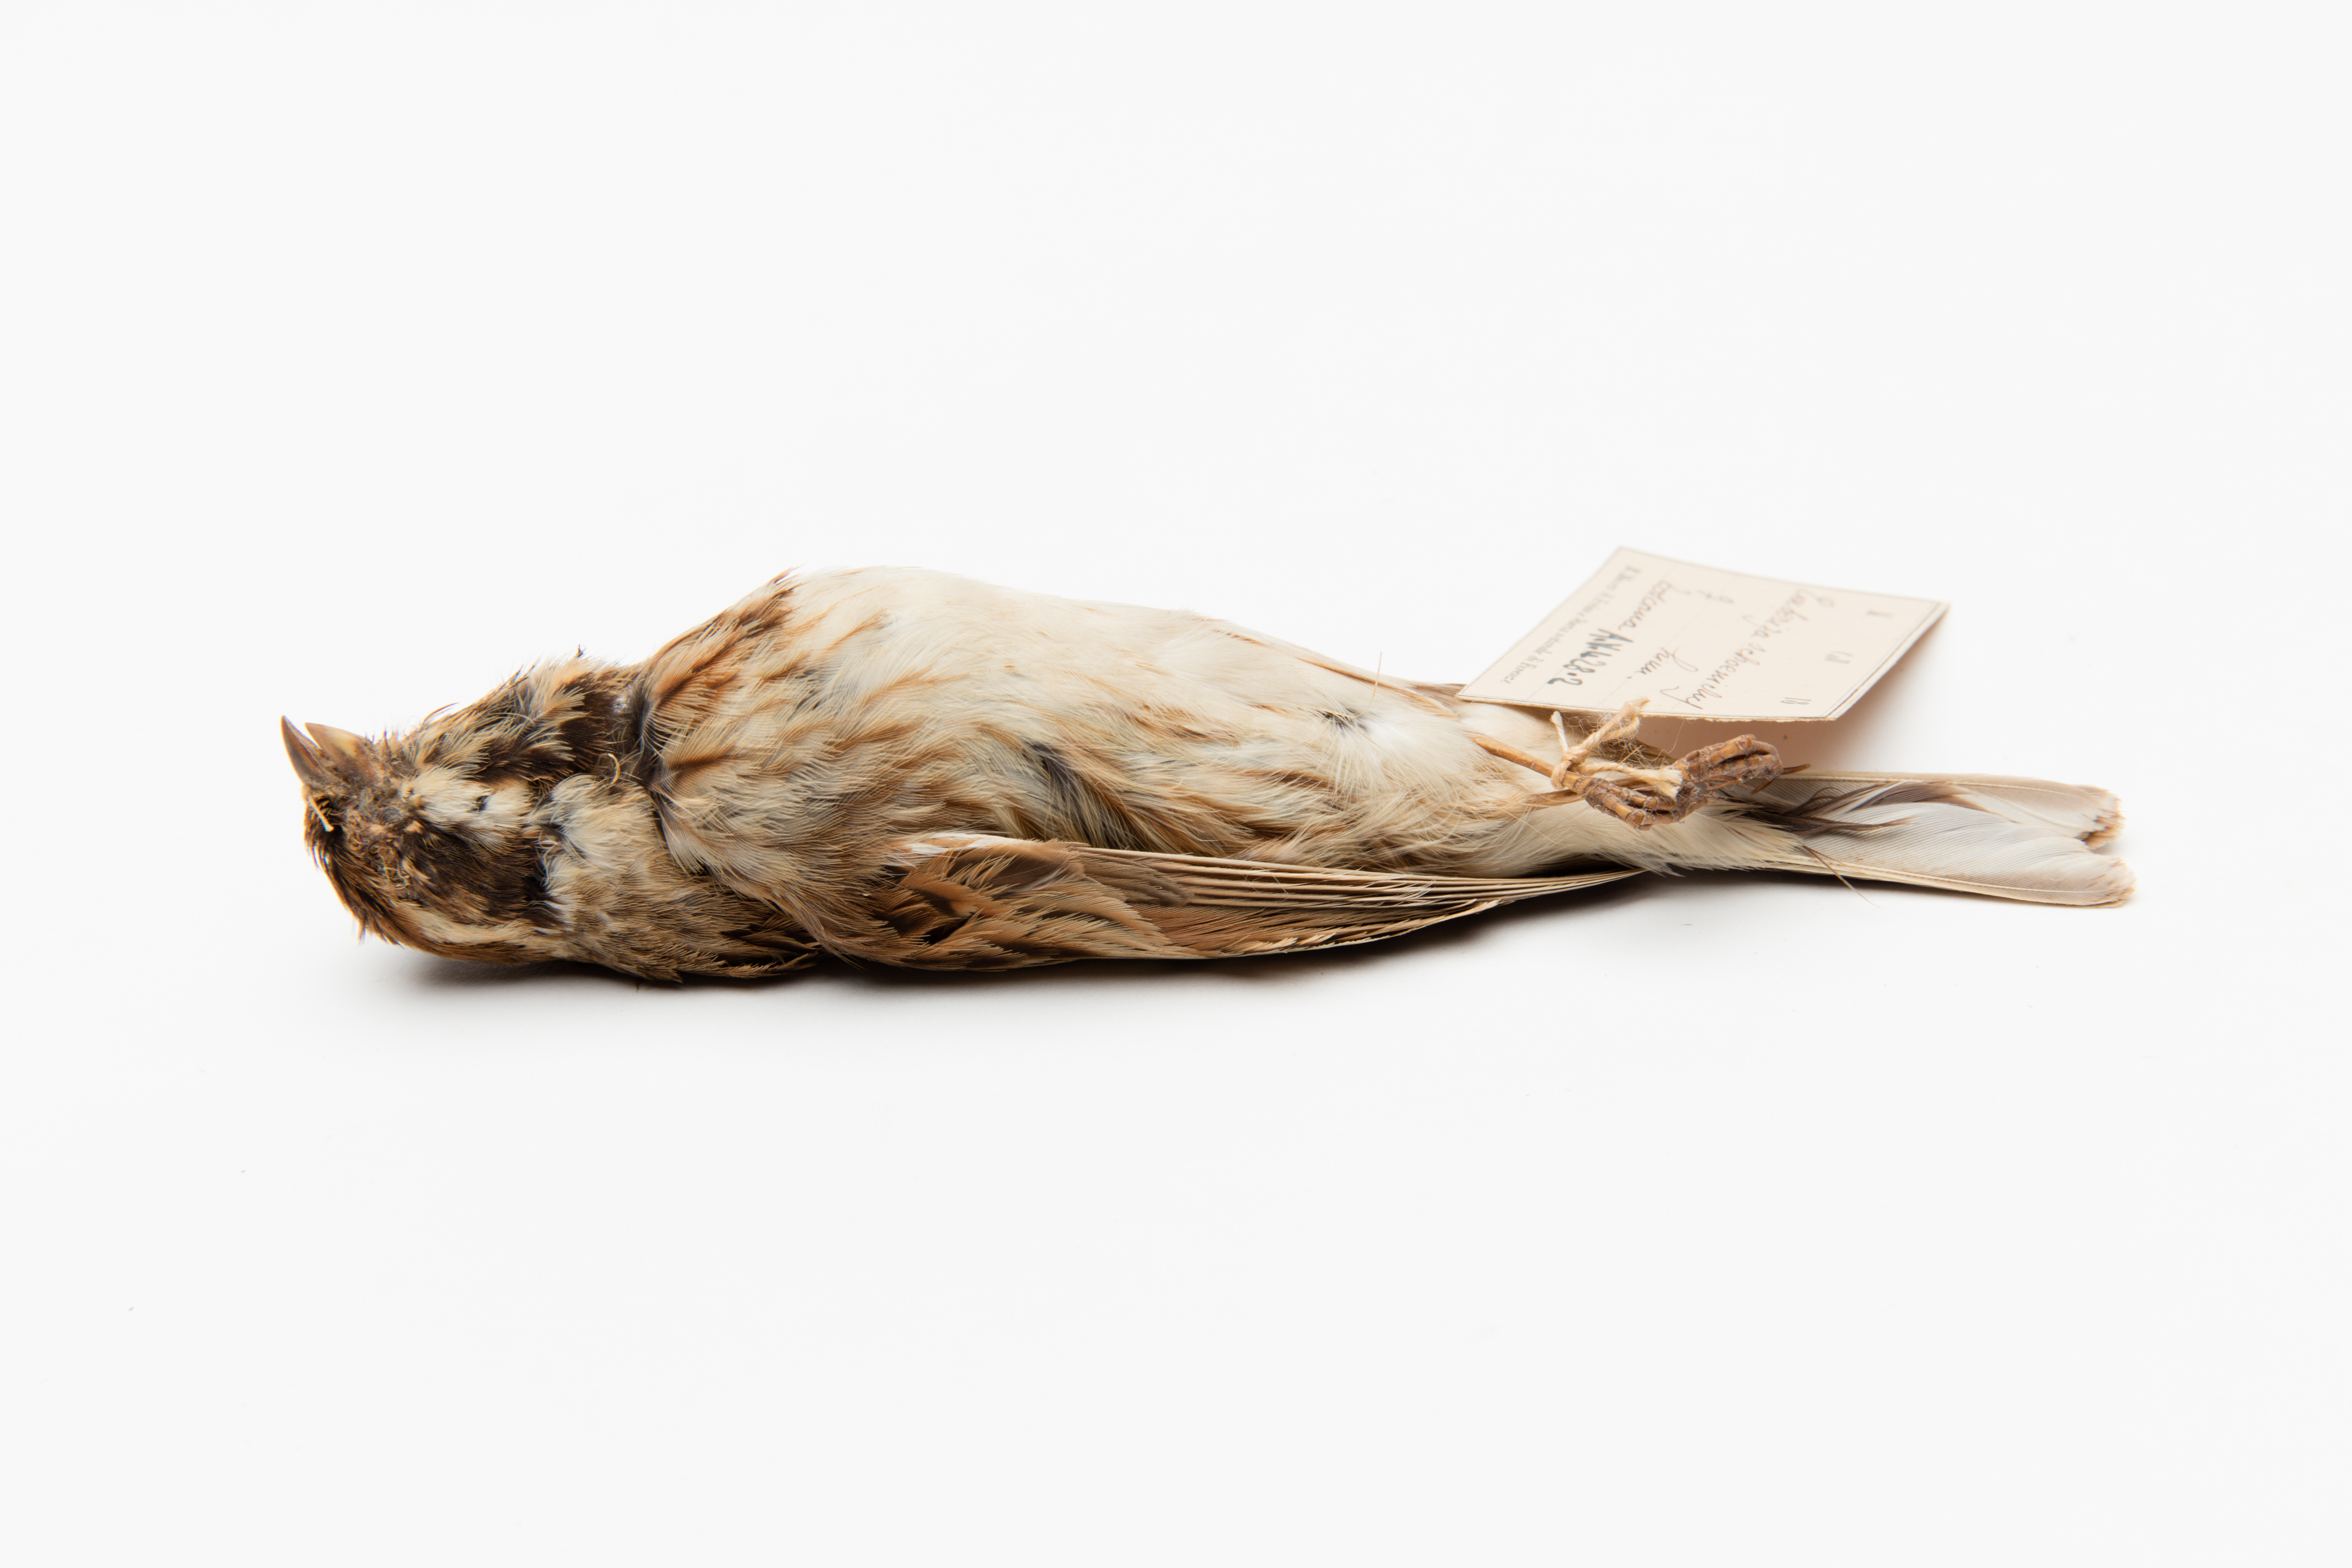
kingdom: Animalia
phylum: Chordata
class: Aves
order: Passeriformes
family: Emberizidae
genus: Emberiza
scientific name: Emberiza schoeniclus
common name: Reed bunting
